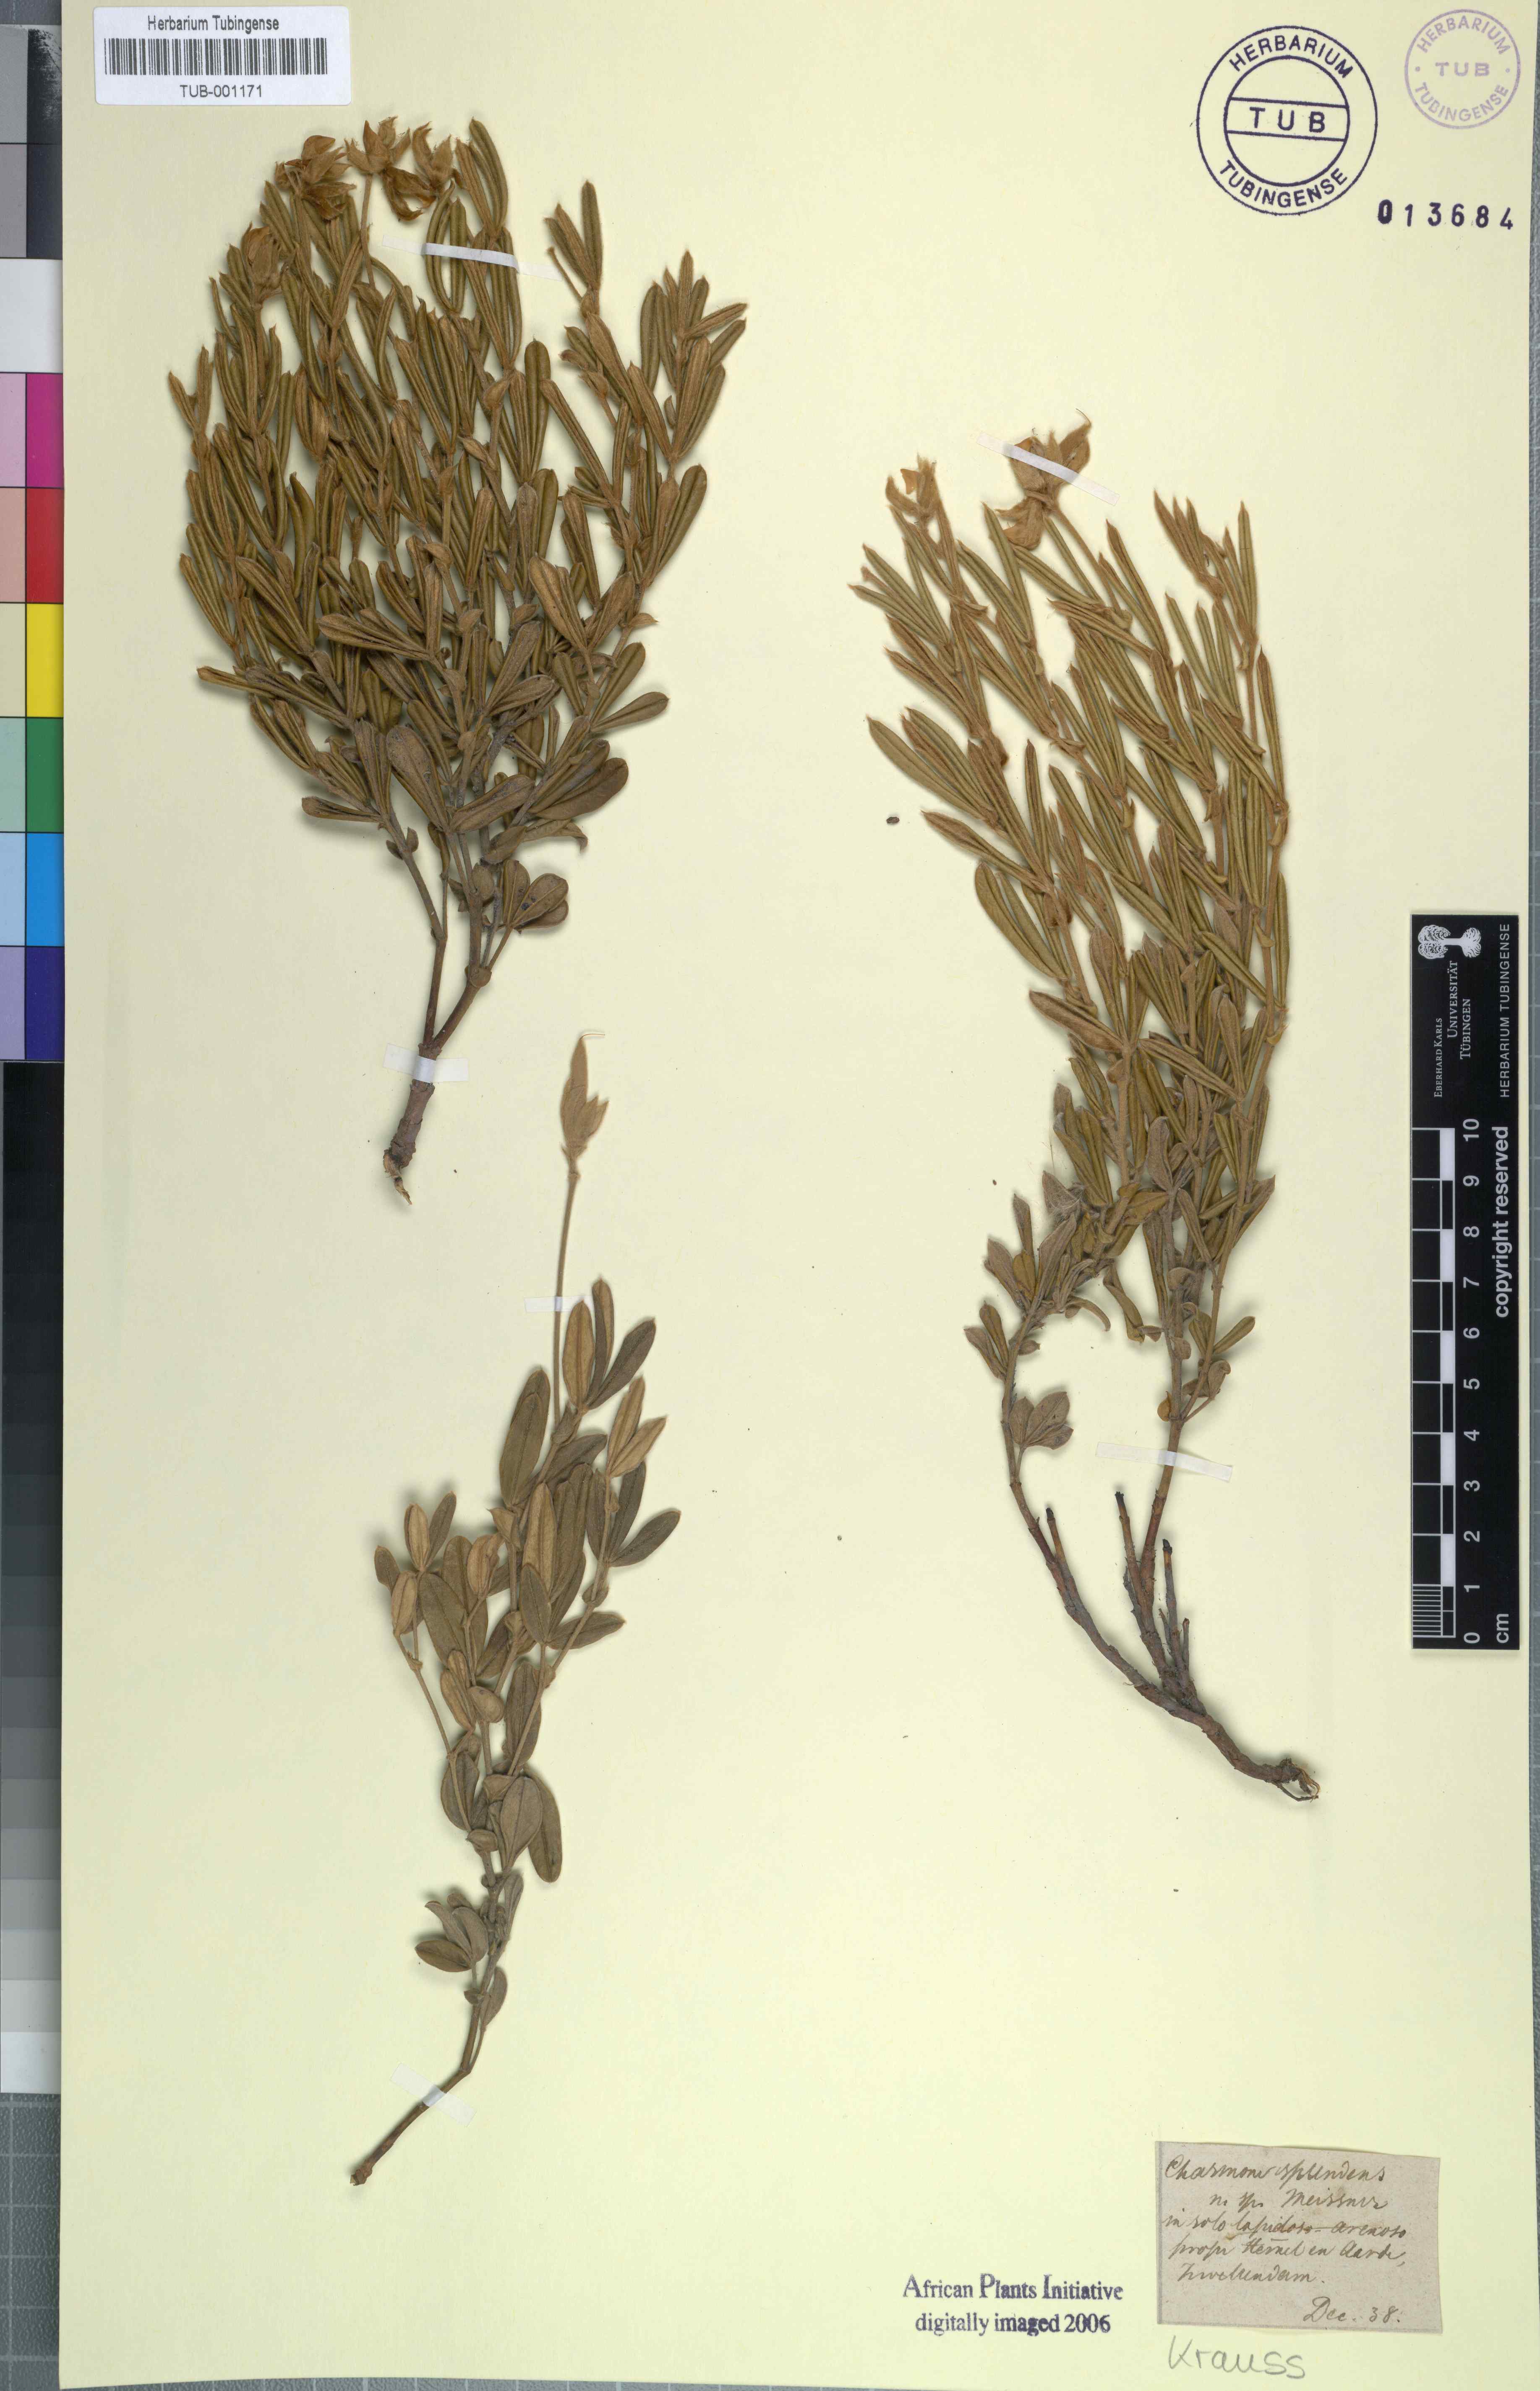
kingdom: Plantae
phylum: Tracheophyta
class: Magnoliopsida
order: Fabales
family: Fabaceae
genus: Argyrolobium
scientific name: Argyrolobium splendens
